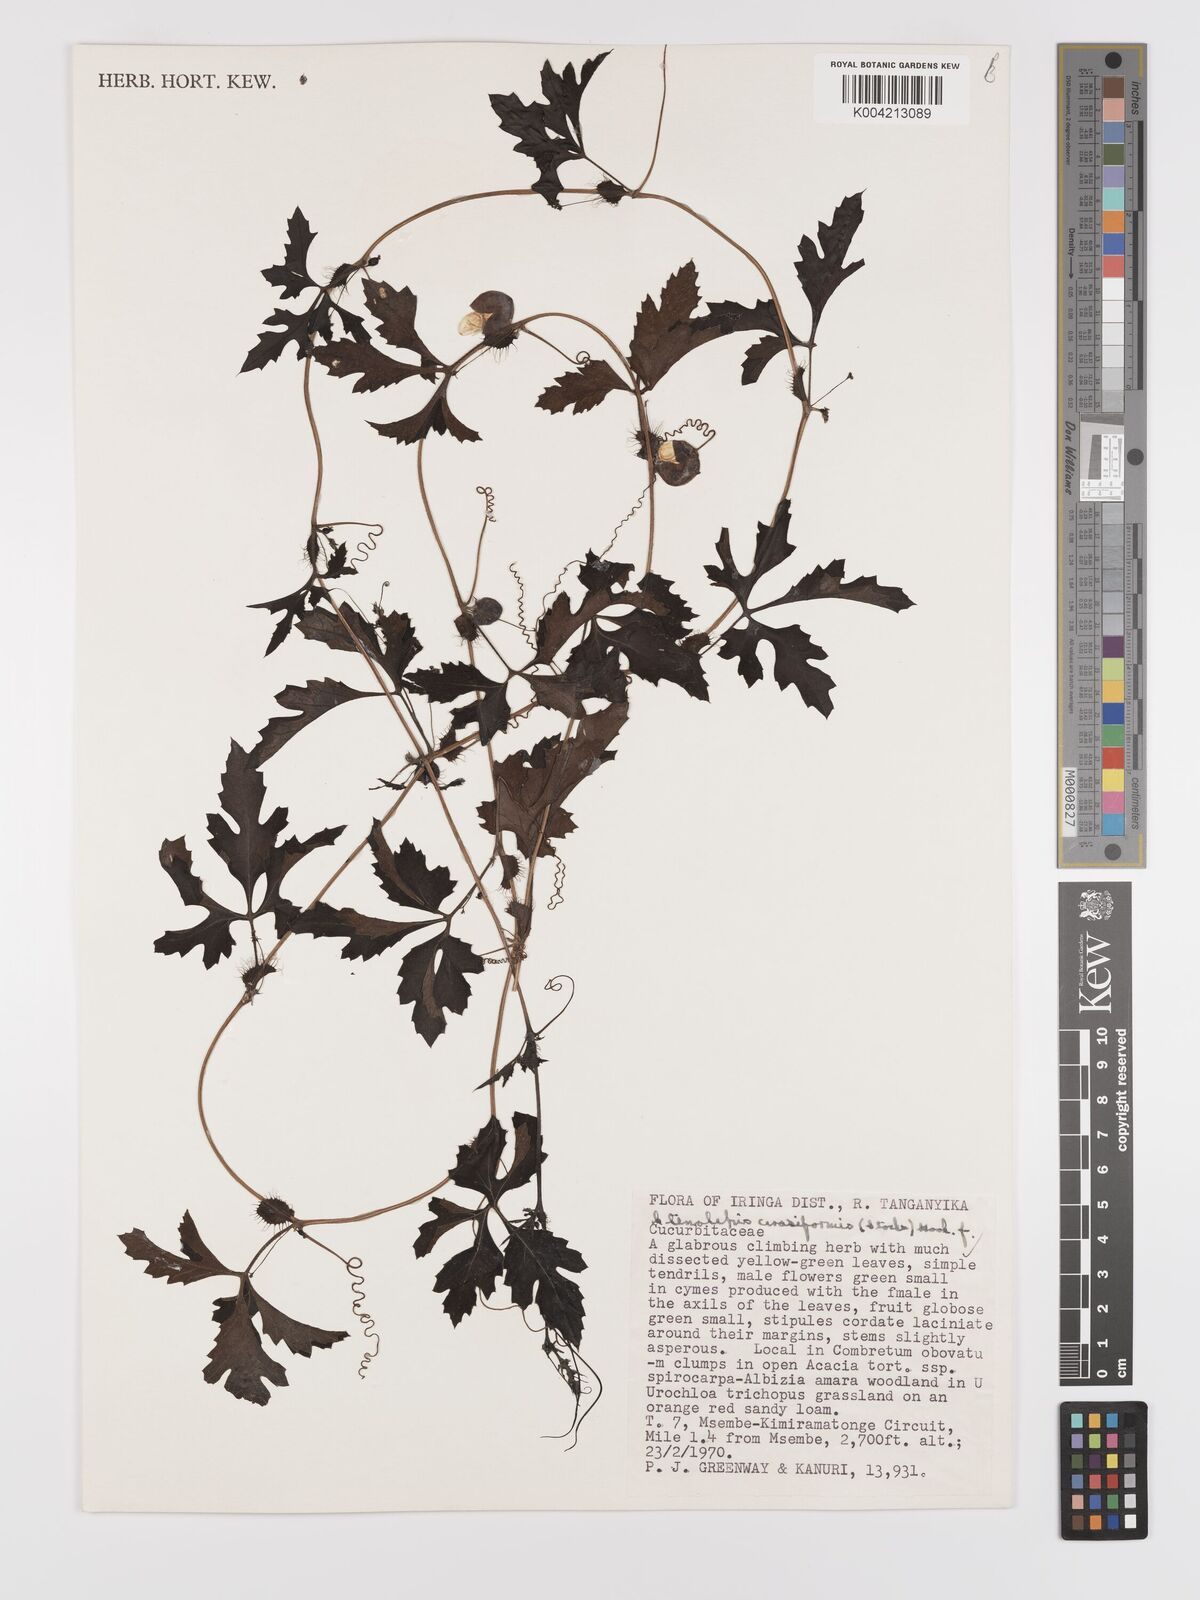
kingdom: Plantae
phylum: Tracheophyta
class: Magnoliopsida
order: Cucurbitales
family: Cucurbitaceae
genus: Blastania
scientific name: Blastania cerasiformis
